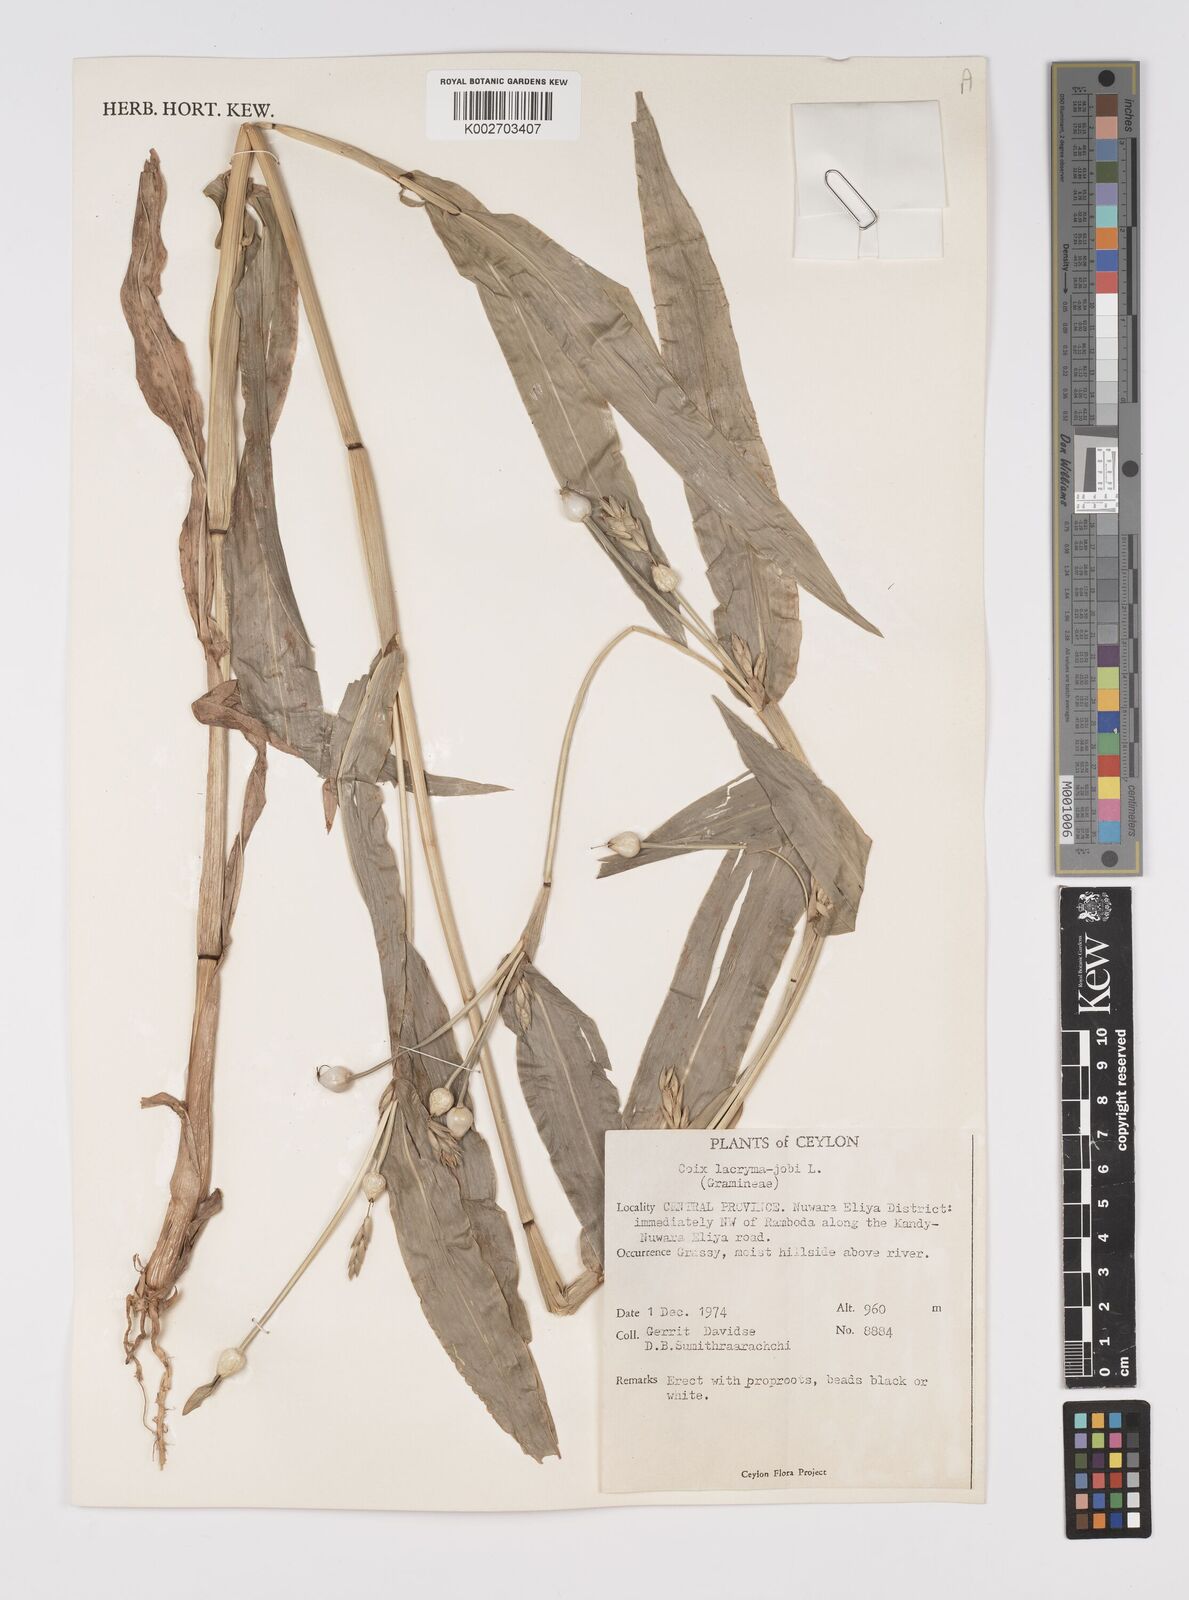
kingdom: Plantae
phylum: Tracheophyta
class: Liliopsida
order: Poales
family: Poaceae
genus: Coix
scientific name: Coix lacryma-jobi
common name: Job's tears
